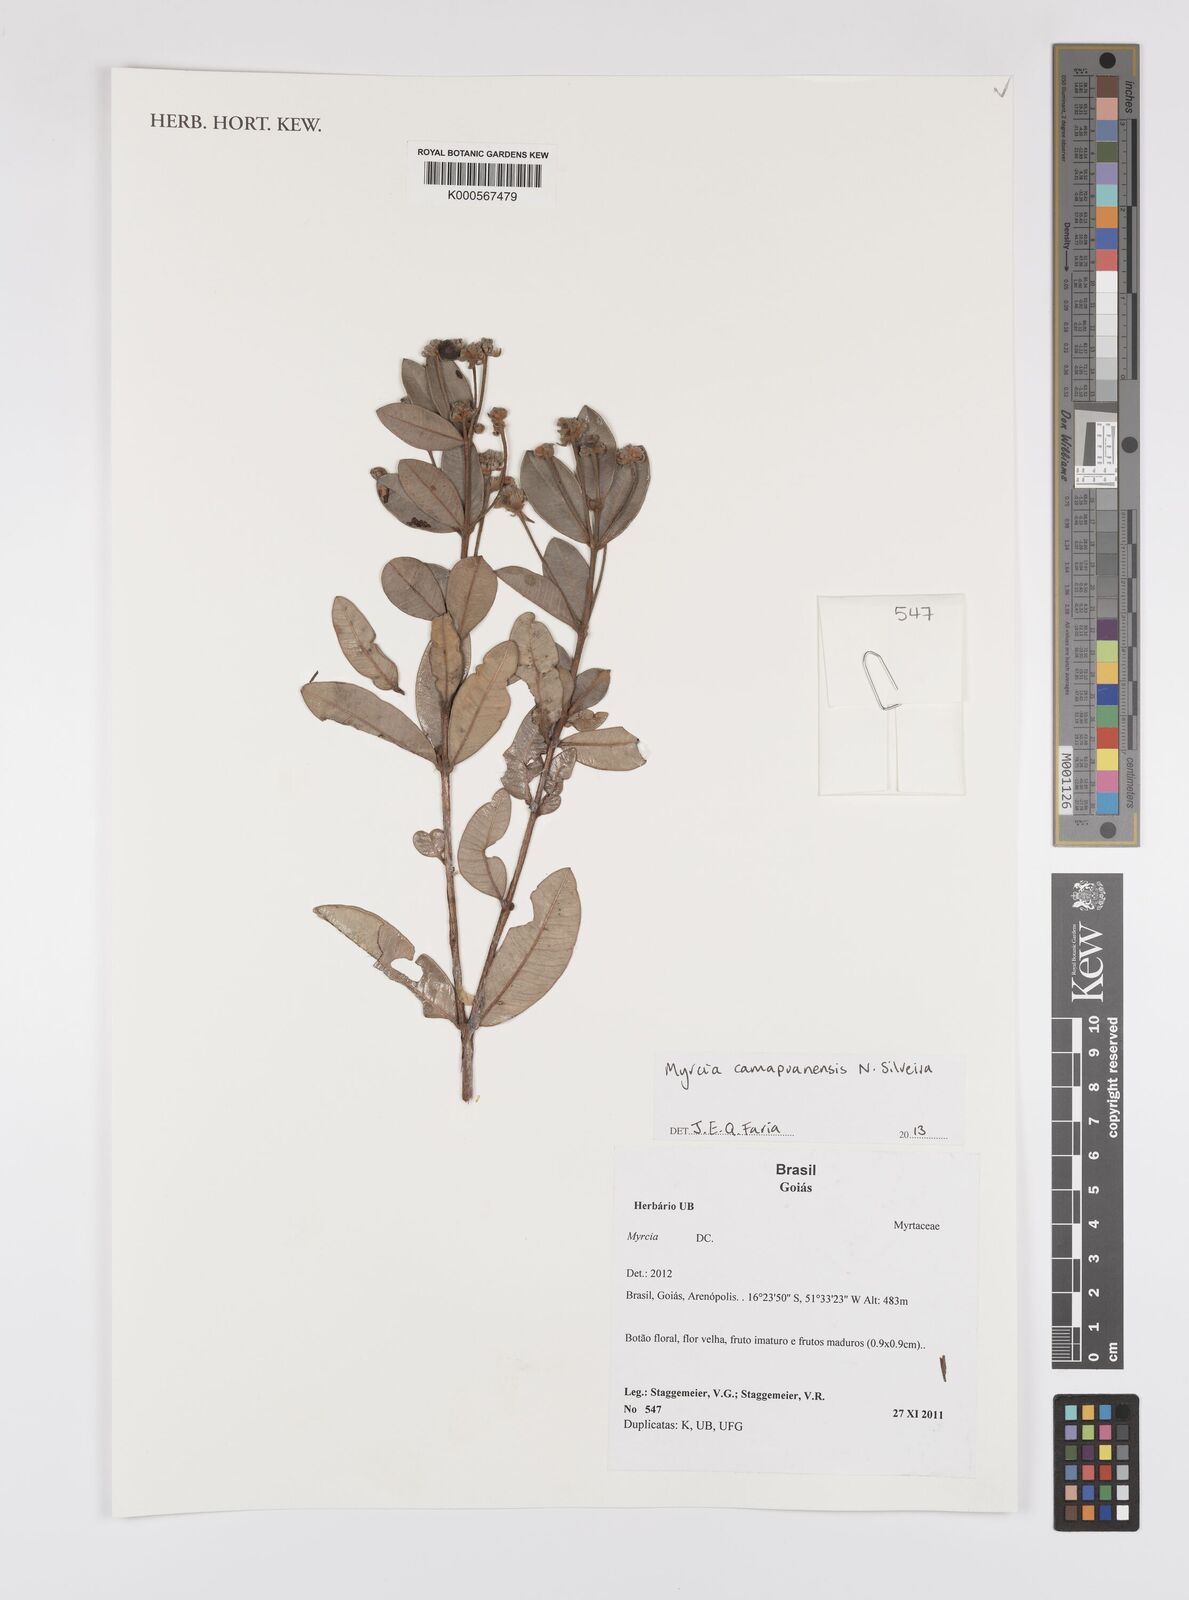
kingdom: Plantae
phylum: Tracheophyta
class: Magnoliopsida
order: Myrtales
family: Myrtaceae
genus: Myrcia
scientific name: Myrcia camapuanensis
